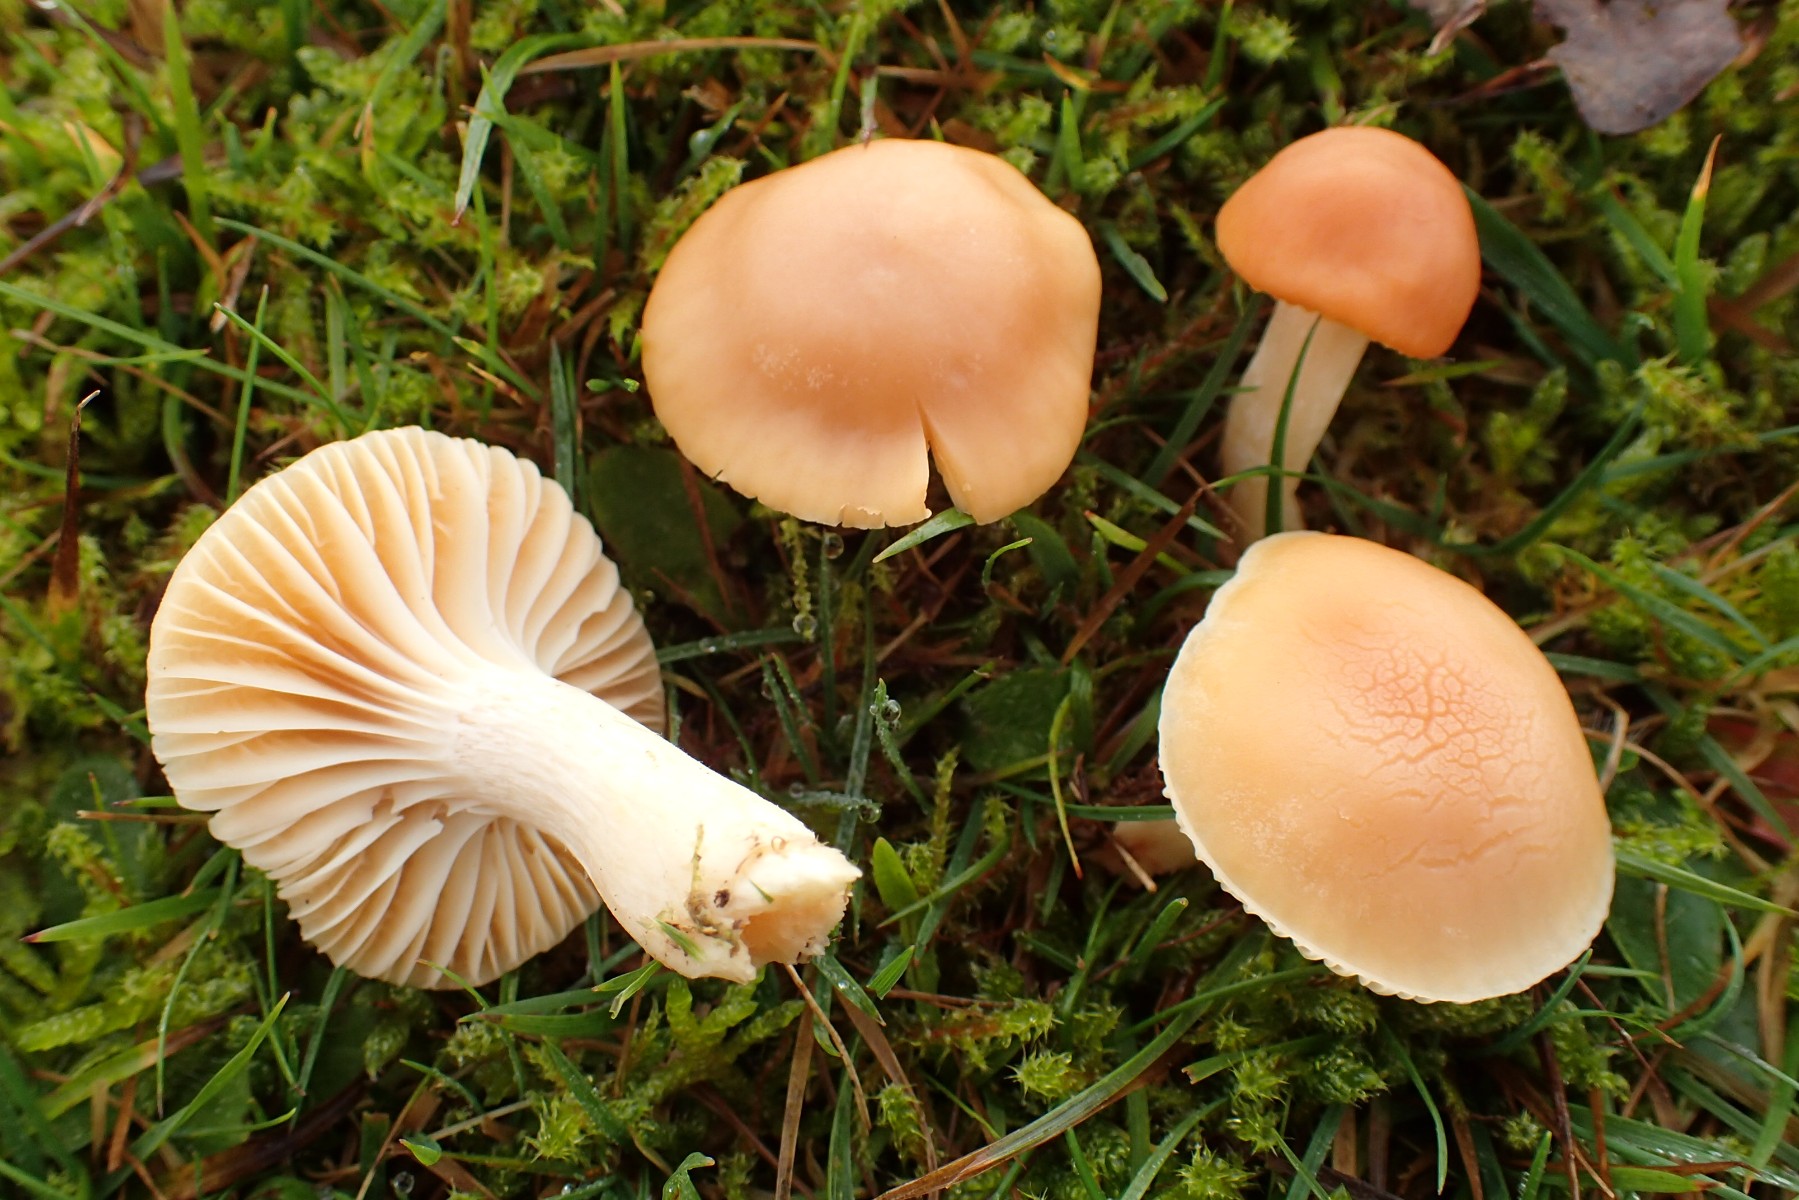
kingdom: Fungi
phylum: Basidiomycota
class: Agaricomycetes
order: Agaricales
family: Hygrophoraceae
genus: Cuphophyllus
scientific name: Cuphophyllus pratensis
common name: eng-vokshat
